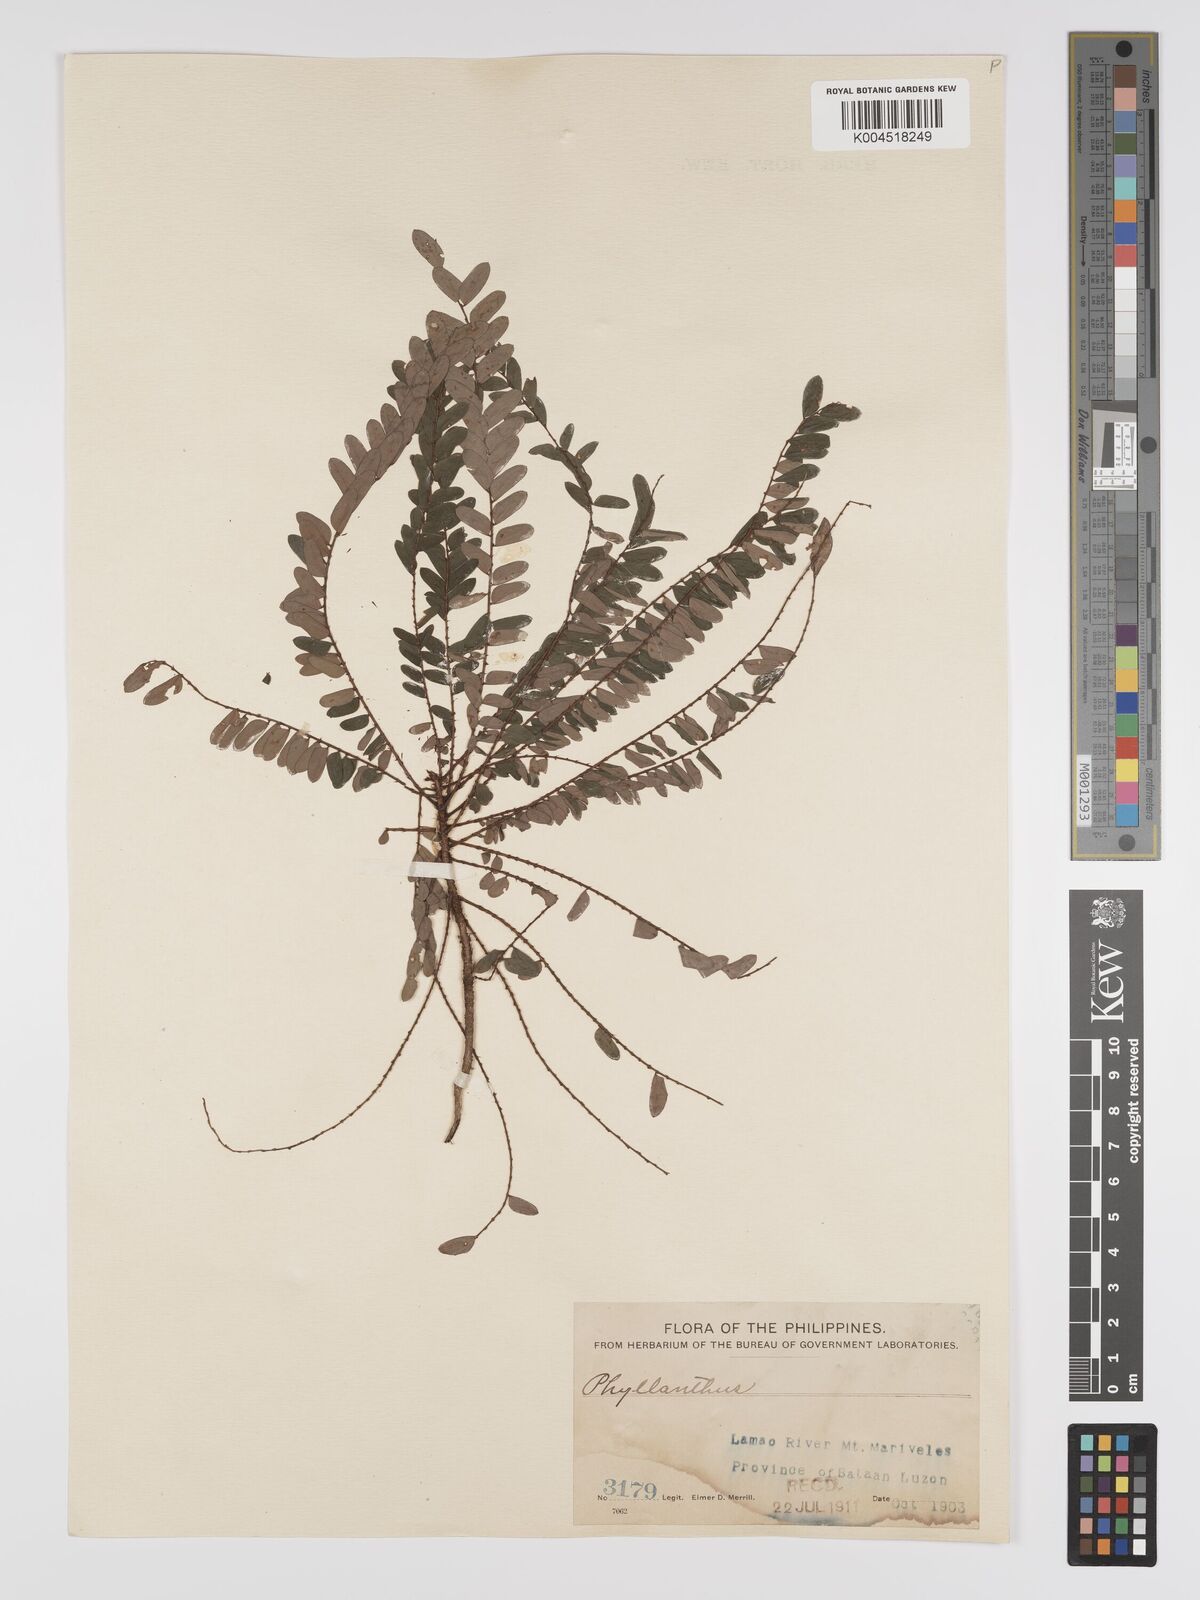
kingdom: Plantae
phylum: Tracheophyta
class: Magnoliopsida
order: Malpighiales
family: Phyllanthaceae
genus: Phyllanthus
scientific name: Phyllanthus blancoanus
